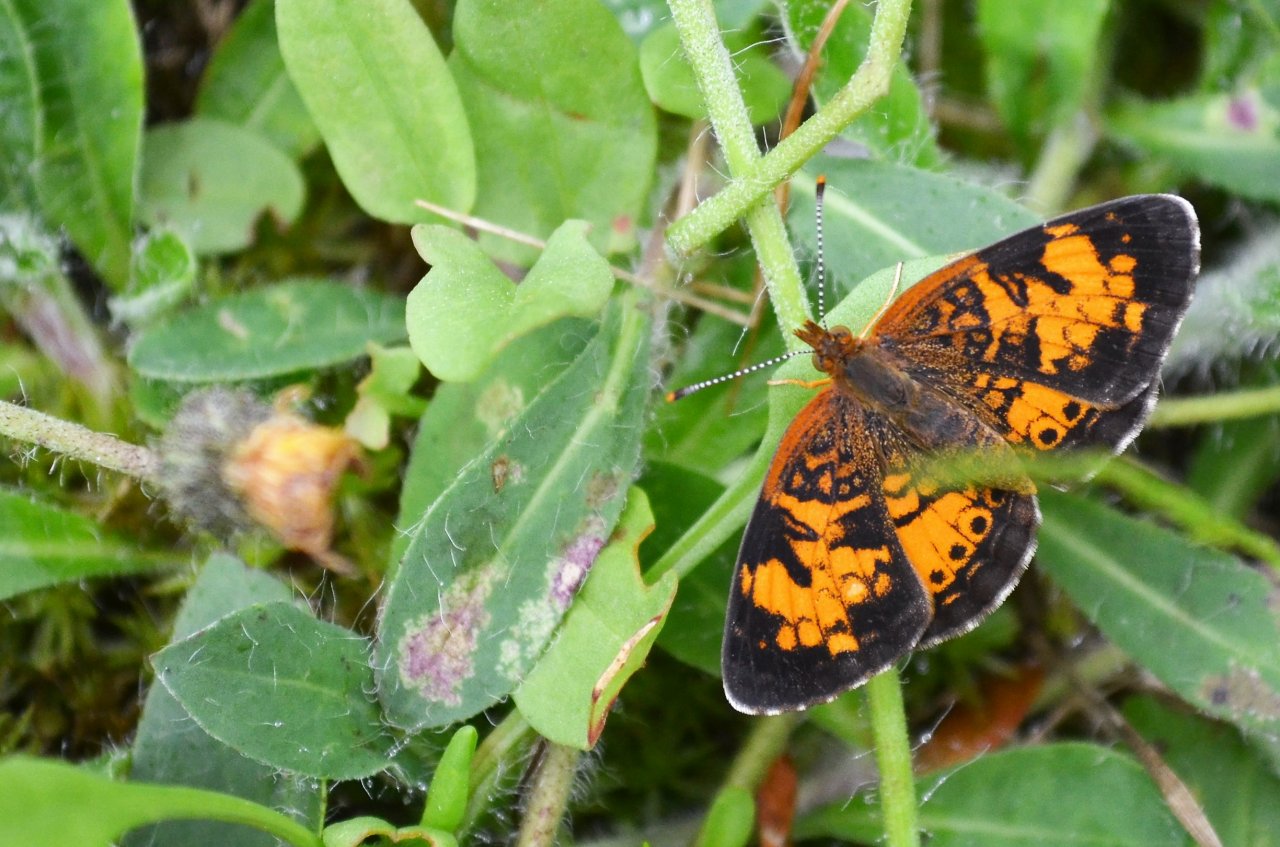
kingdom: Animalia
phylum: Arthropoda
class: Insecta
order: Lepidoptera
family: Nymphalidae
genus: Phyciodes
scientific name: Phyciodes tharos
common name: Northern Crescent
